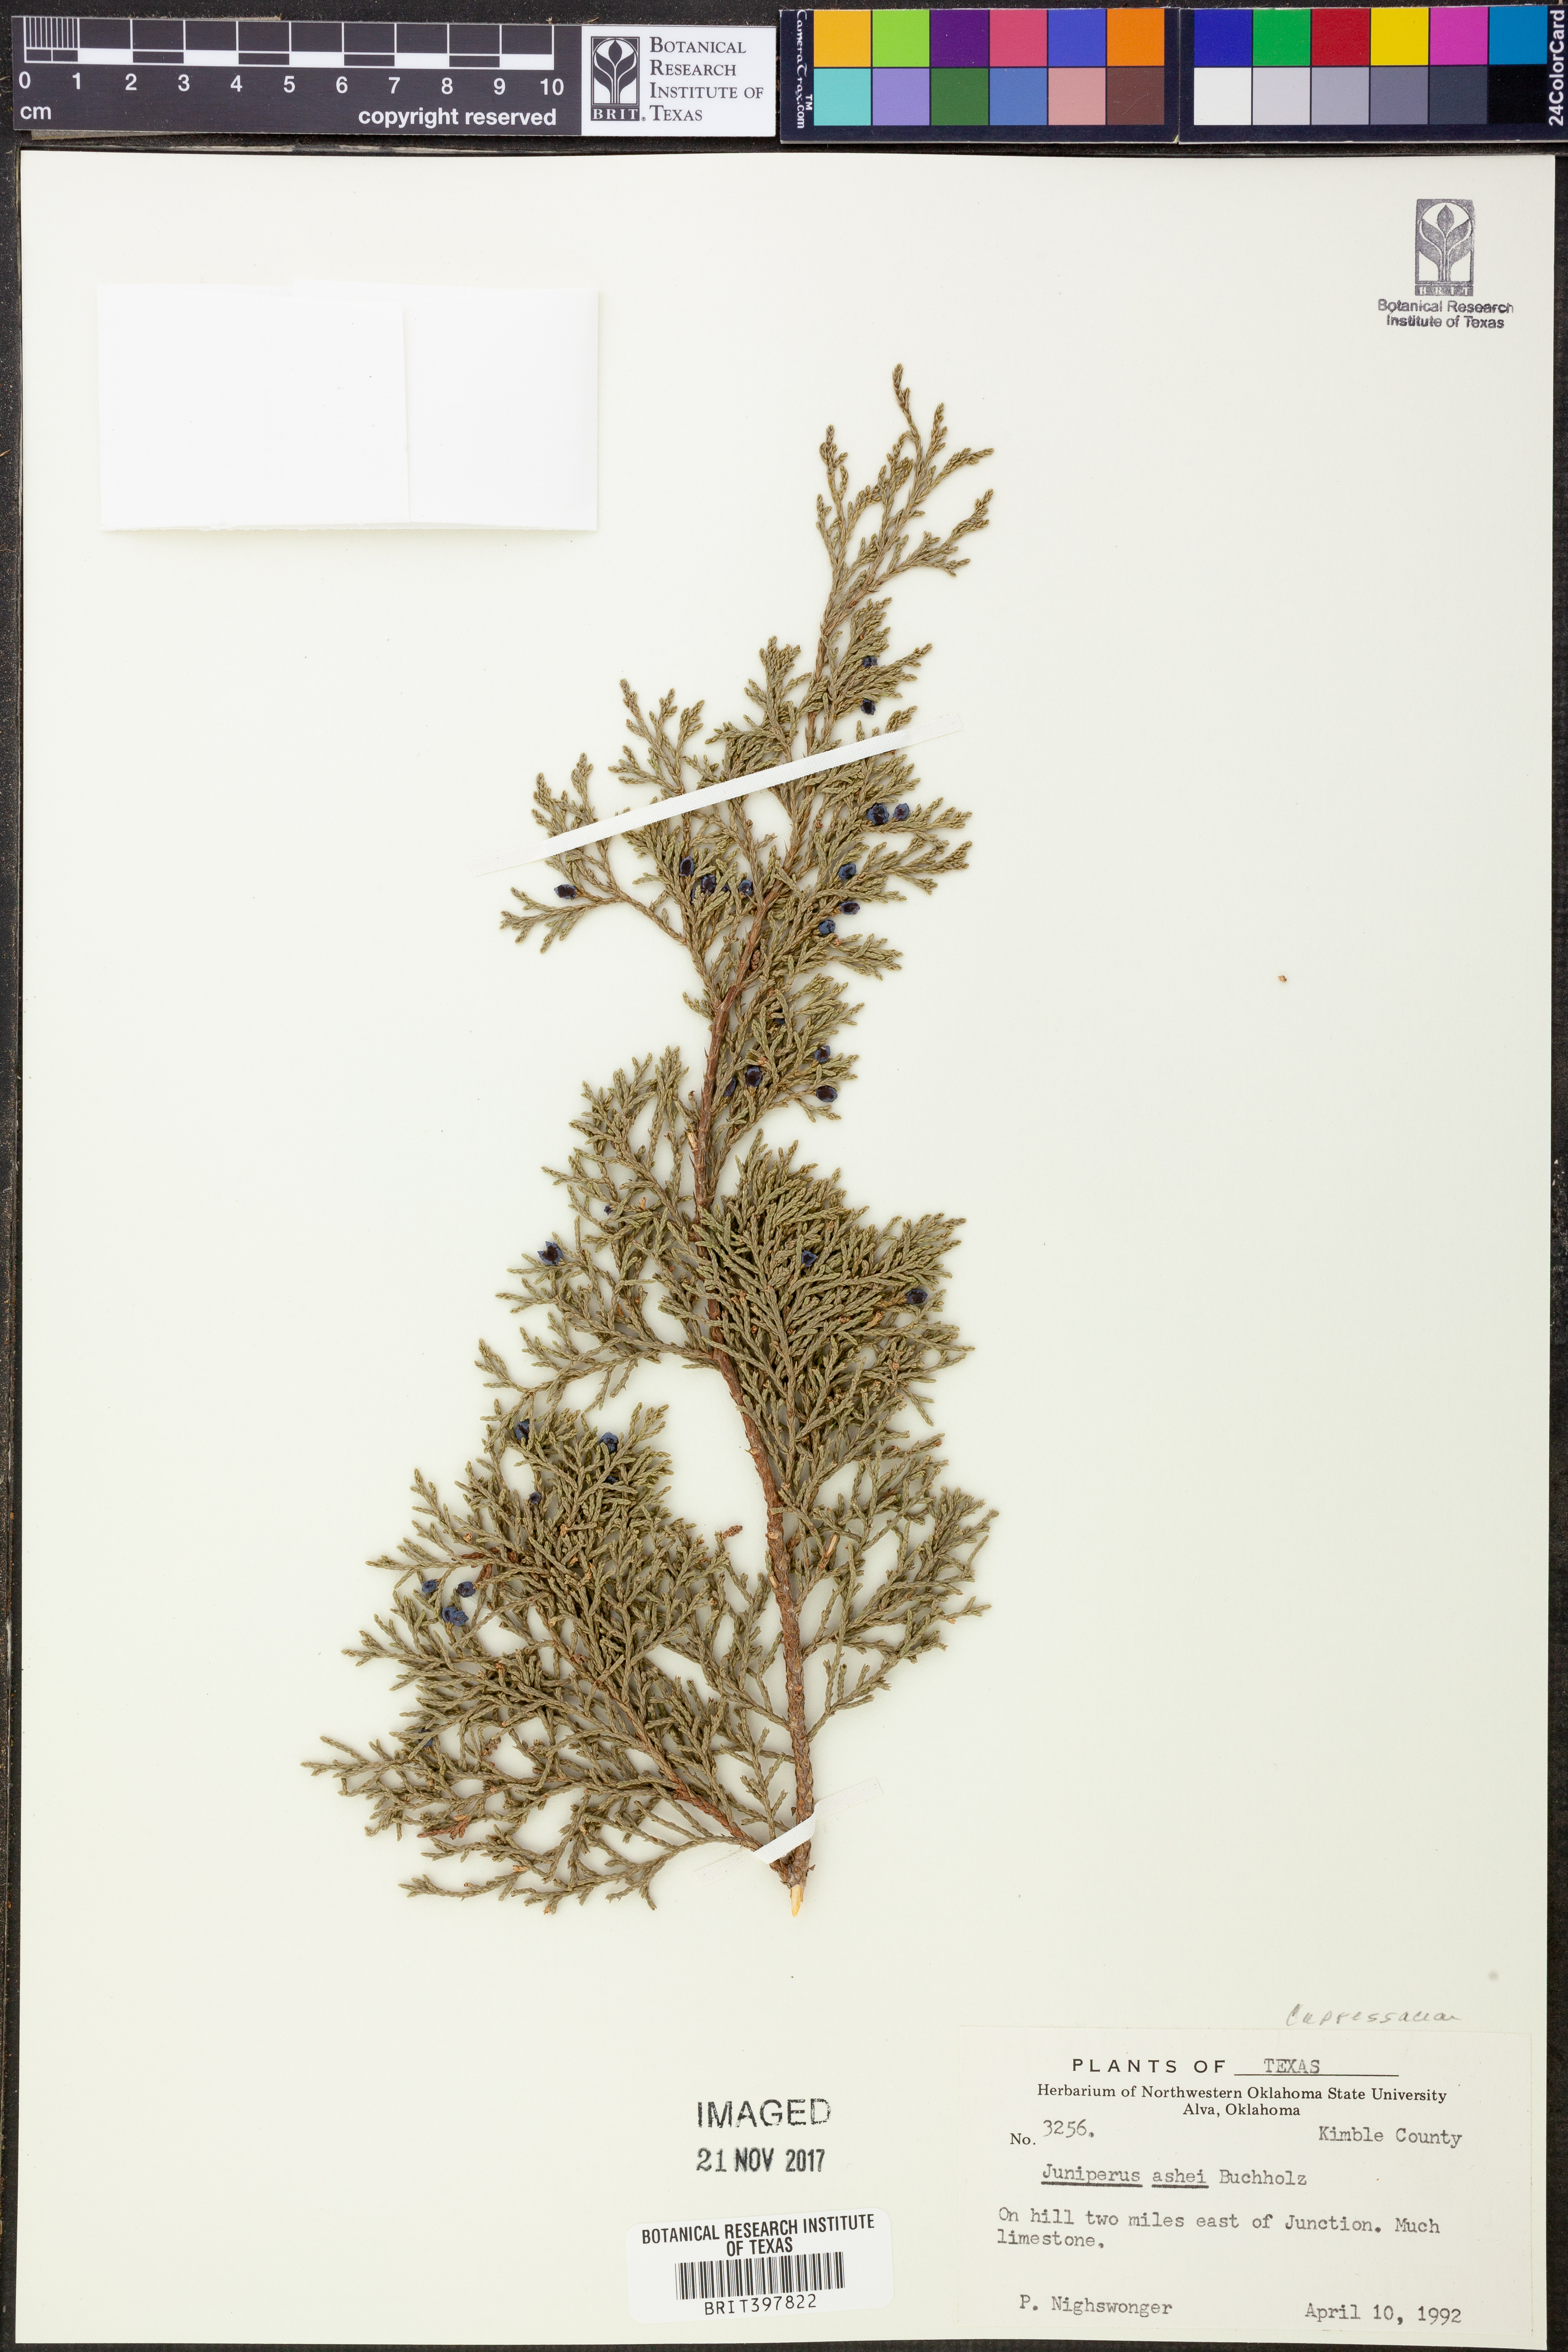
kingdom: Plantae
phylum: Tracheophyta
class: Pinopsida
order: Pinales
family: Cupressaceae
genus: Juniperus
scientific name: Juniperus ashei
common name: Mexican juniper
